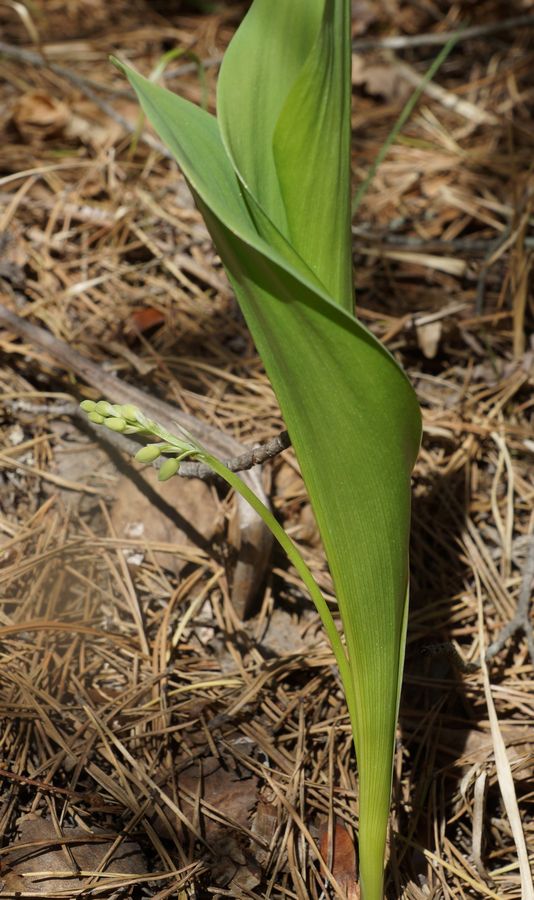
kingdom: Plantae
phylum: Tracheophyta
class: Liliopsida
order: Asparagales
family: Asparagaceae
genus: Convallaria
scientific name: Convallaria majalis
